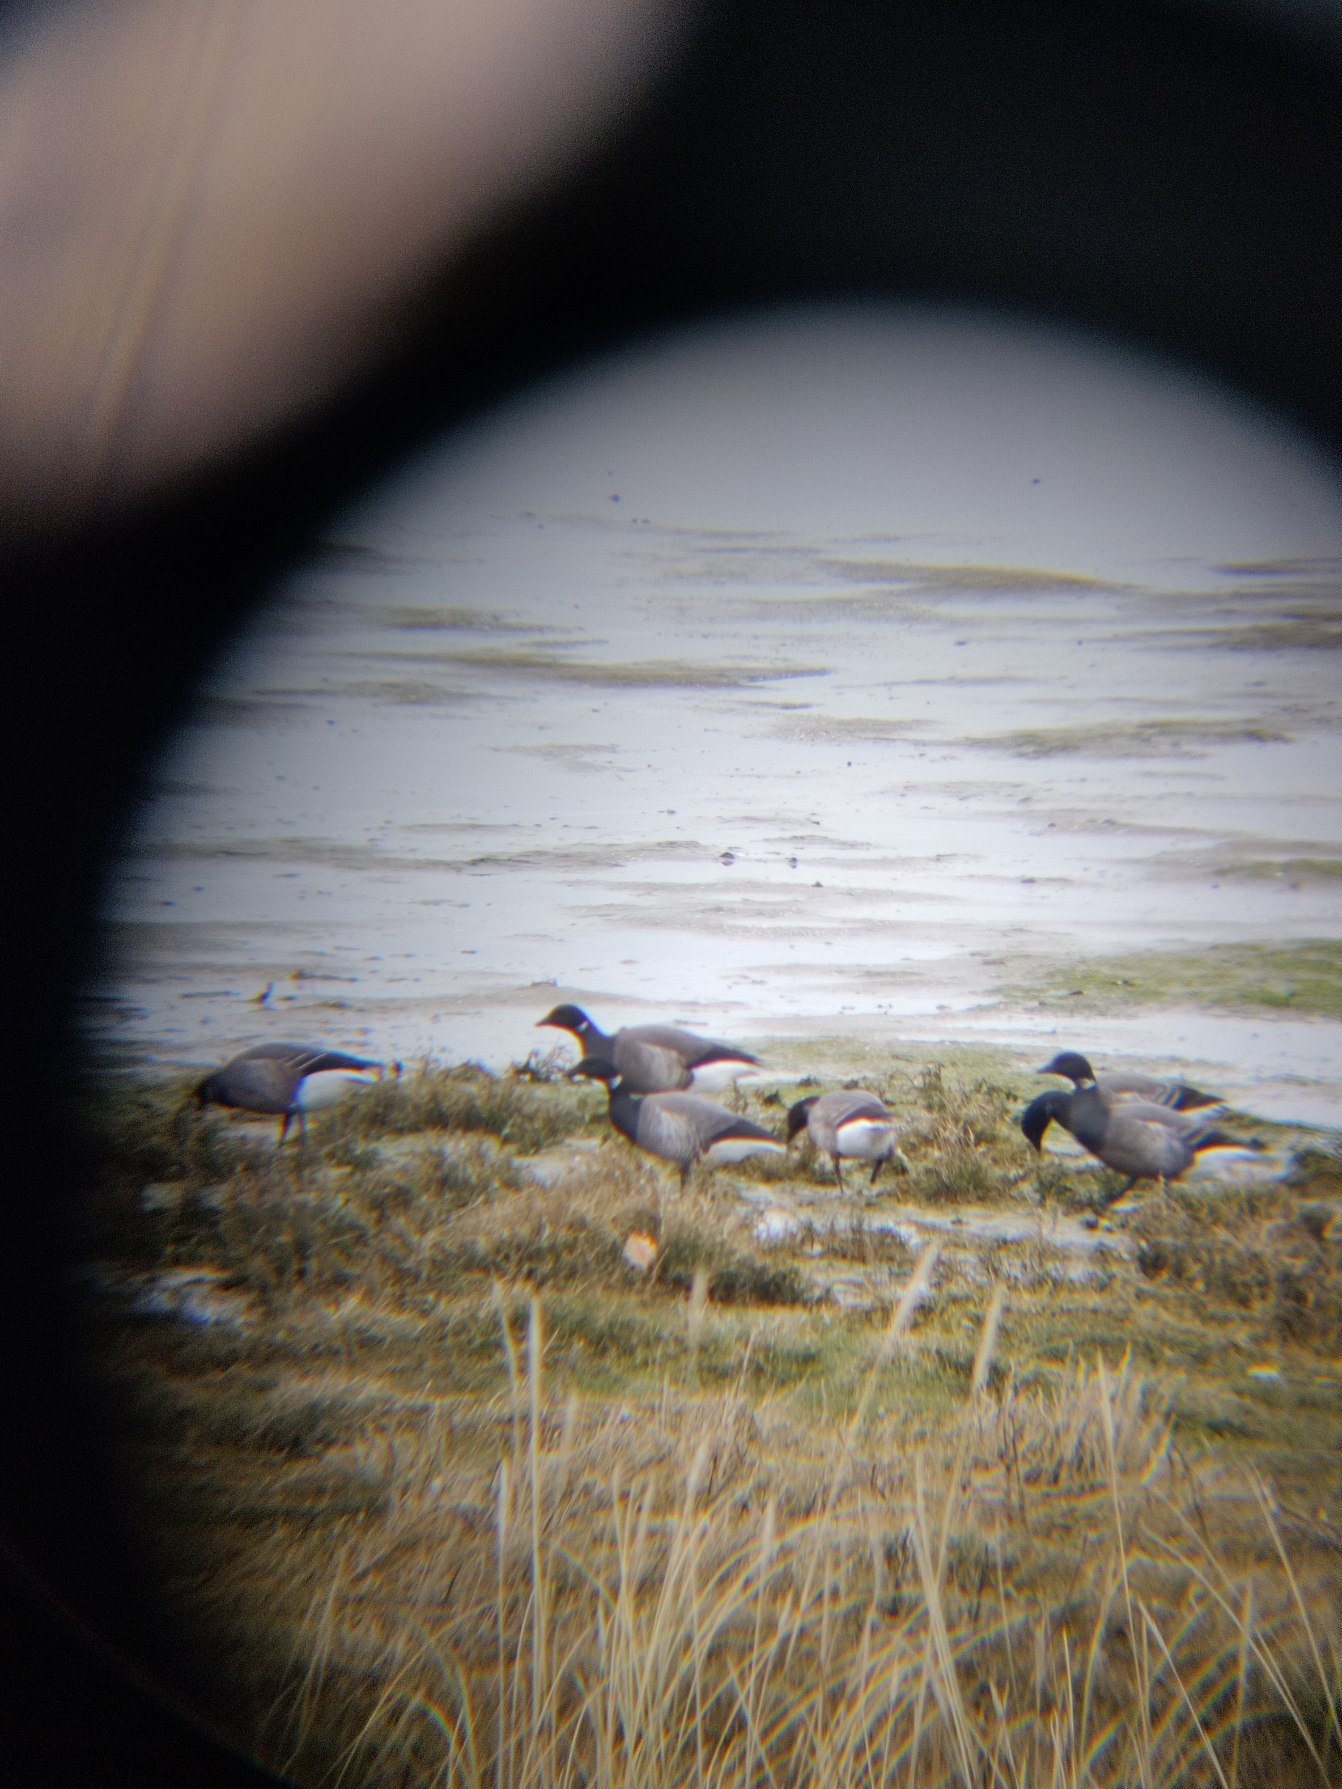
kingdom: Animalia
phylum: Chordata
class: Aves
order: Anseriformes
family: Anatidae
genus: Branta
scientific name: Branta bernicla
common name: Knortegås
